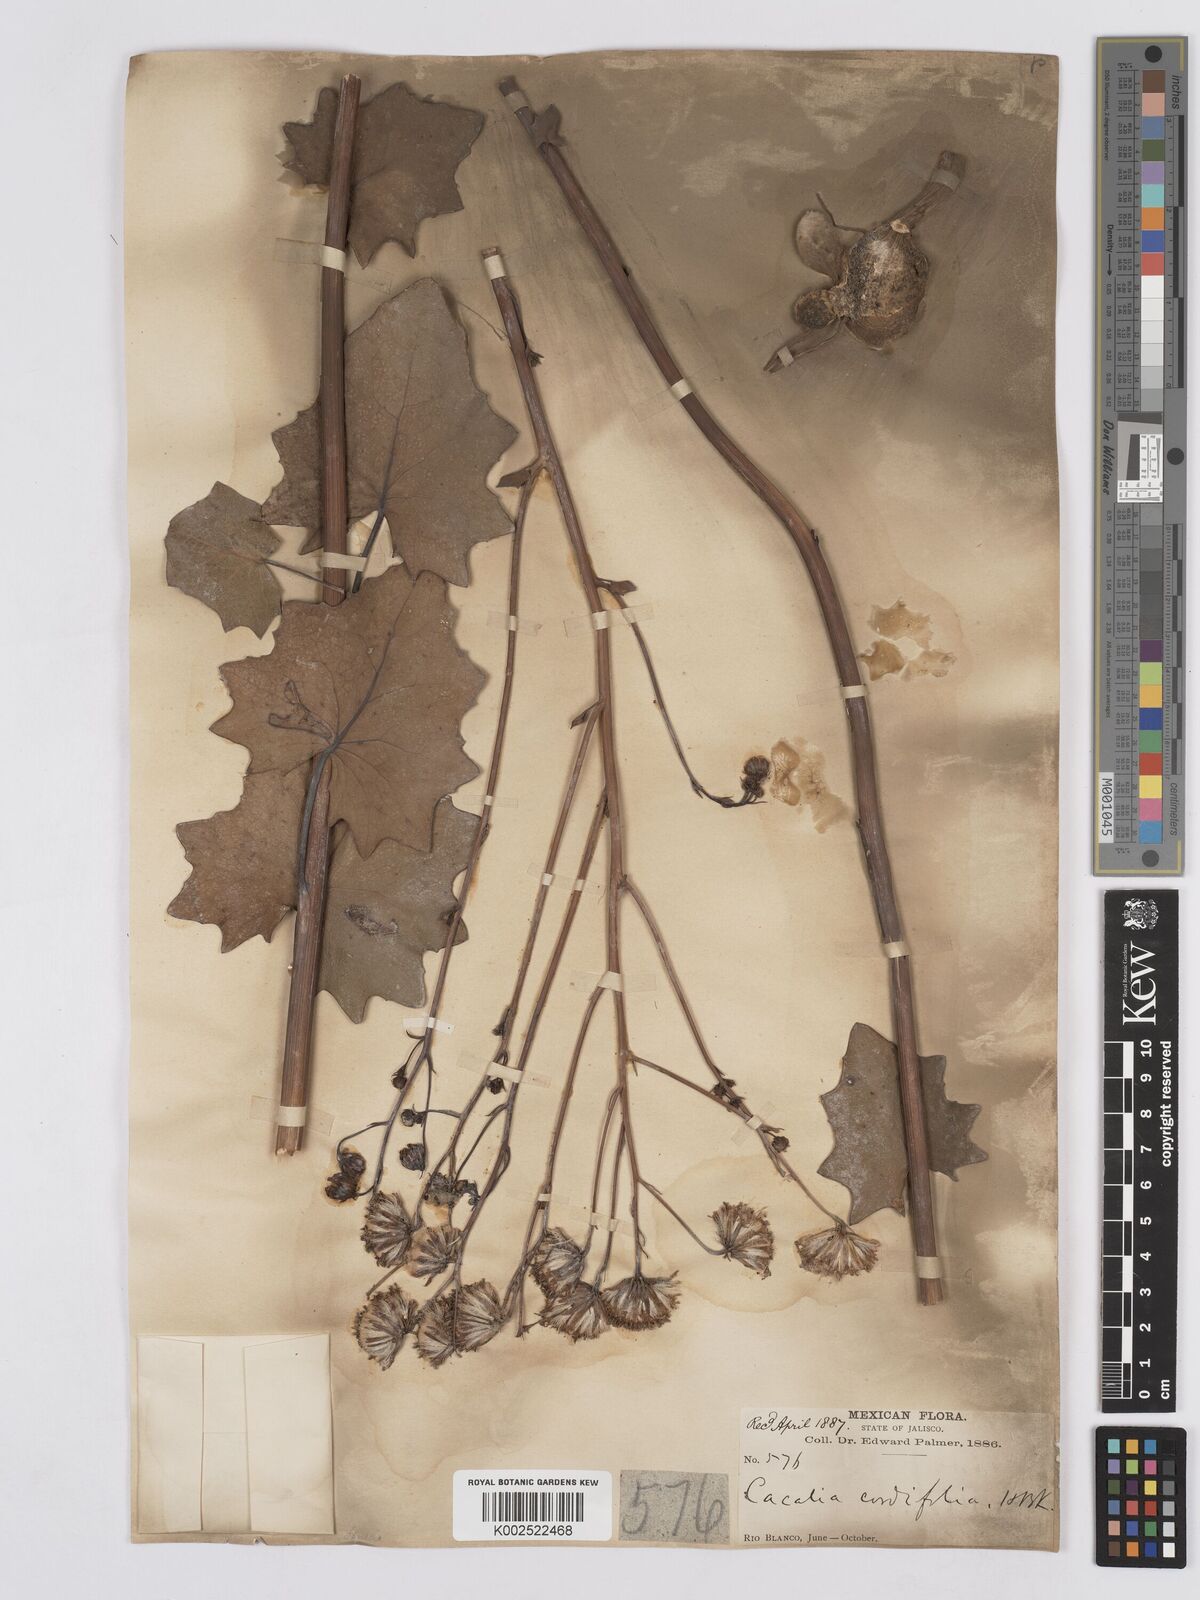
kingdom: Plantae
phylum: Tracheophyta
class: Magnoliopsida
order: Asterales
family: Asteraceae
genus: Roldana
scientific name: Roldana sessilifolia
